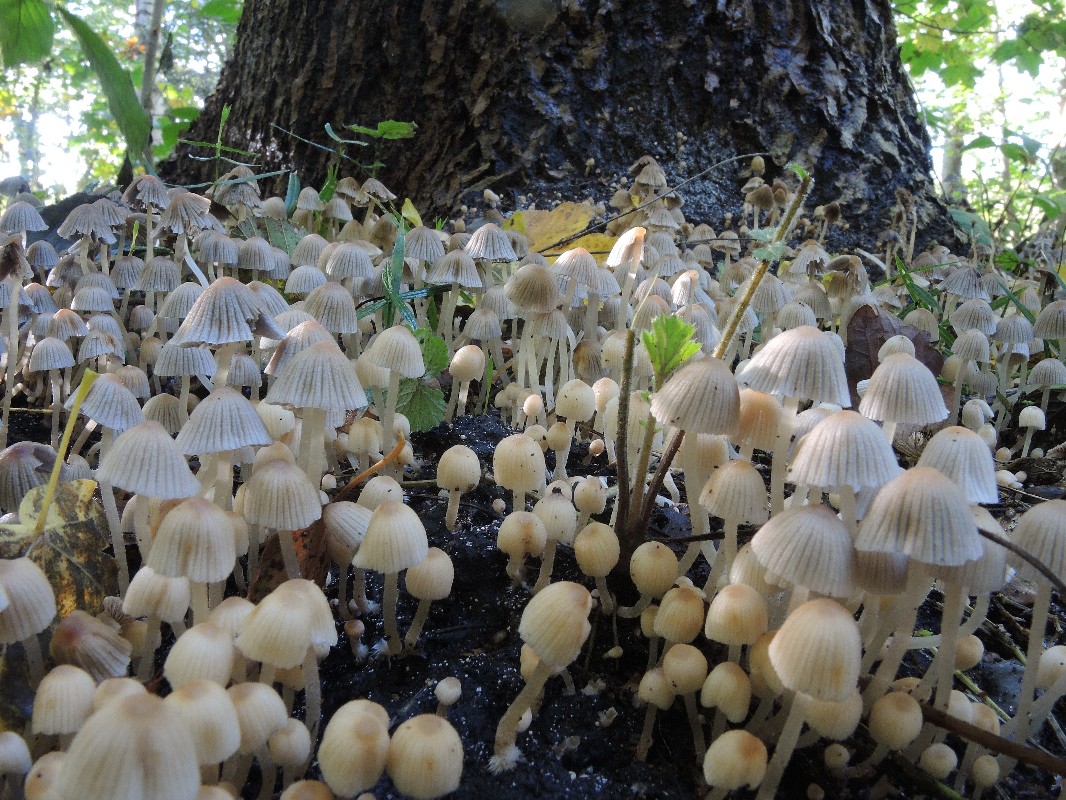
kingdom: Fungi
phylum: Basidiomycota
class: Agaricomycetes
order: Agaricales
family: Psathyrellaceae
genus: Coprinellus
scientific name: Coprinellus disseminatus
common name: bredsået blækhat
